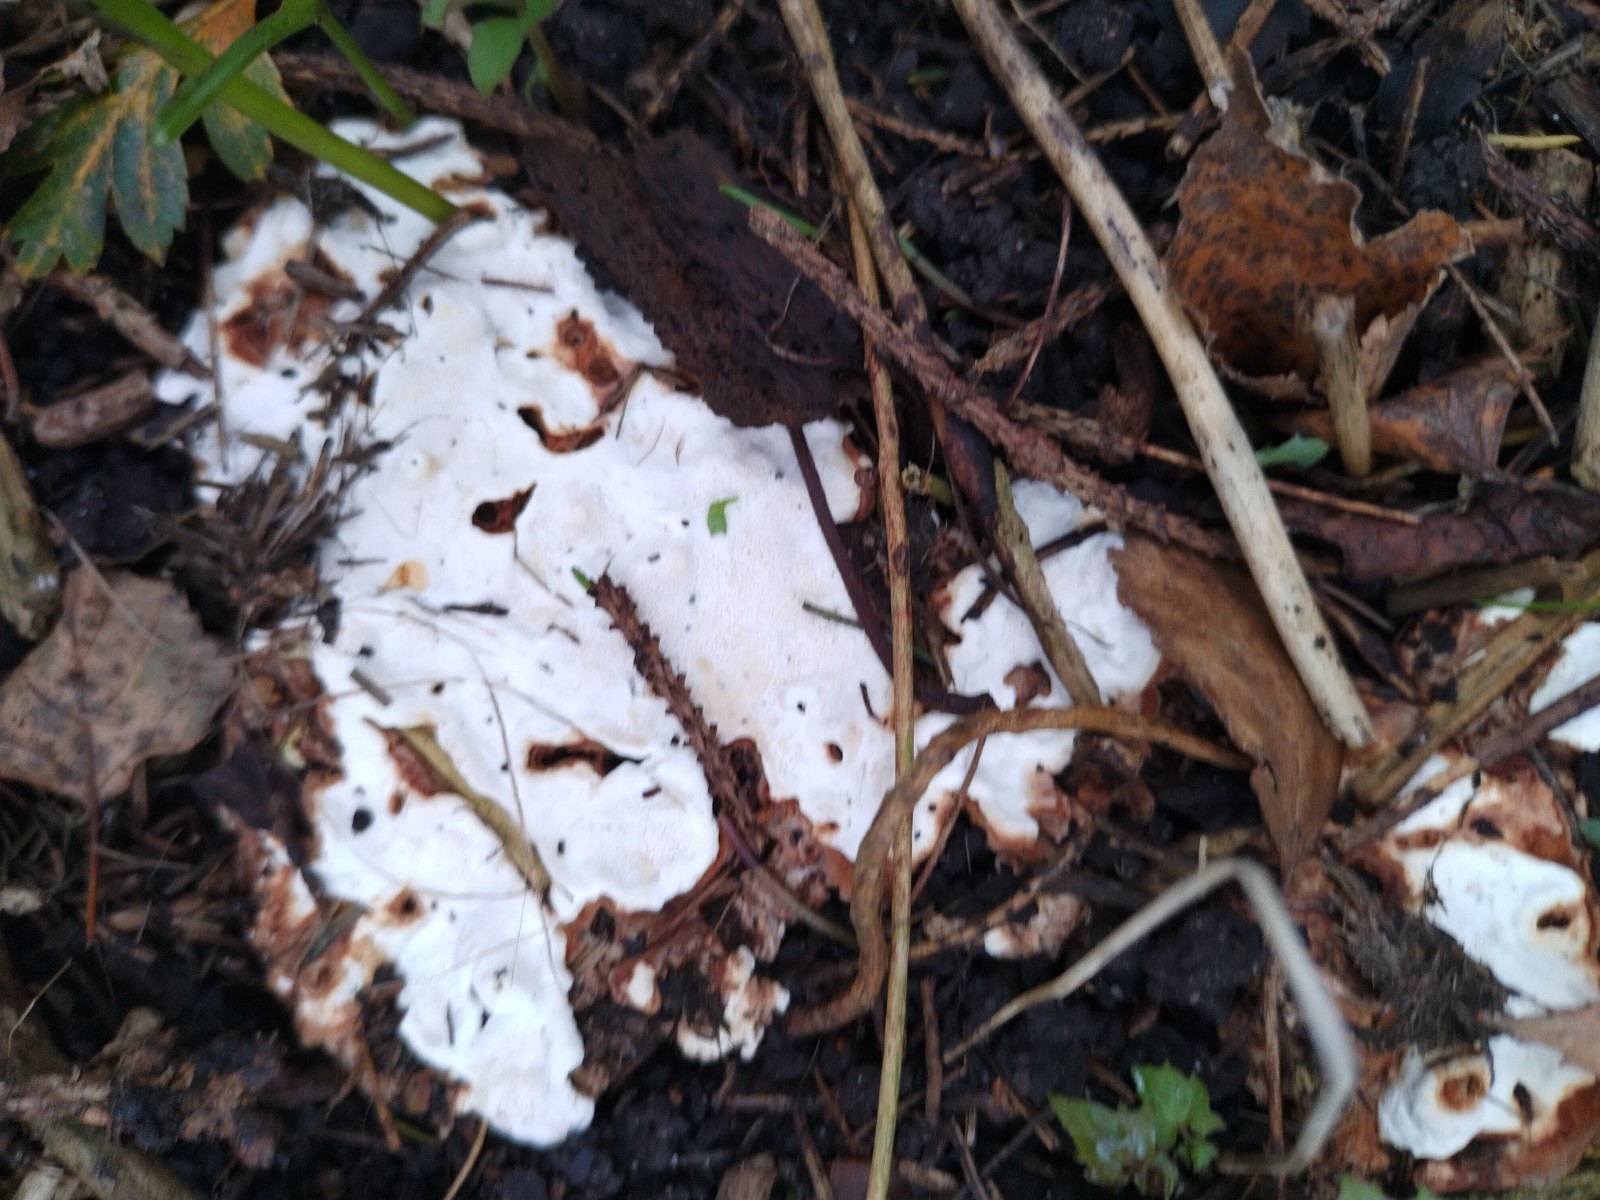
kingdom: Fungi
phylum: Basidiomycota
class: Agaricomycetes
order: Russulales
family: Bondarzewiaceae
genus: Heterobasidion
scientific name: Heterobasidion annosum
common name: almindelig rodfordærver
